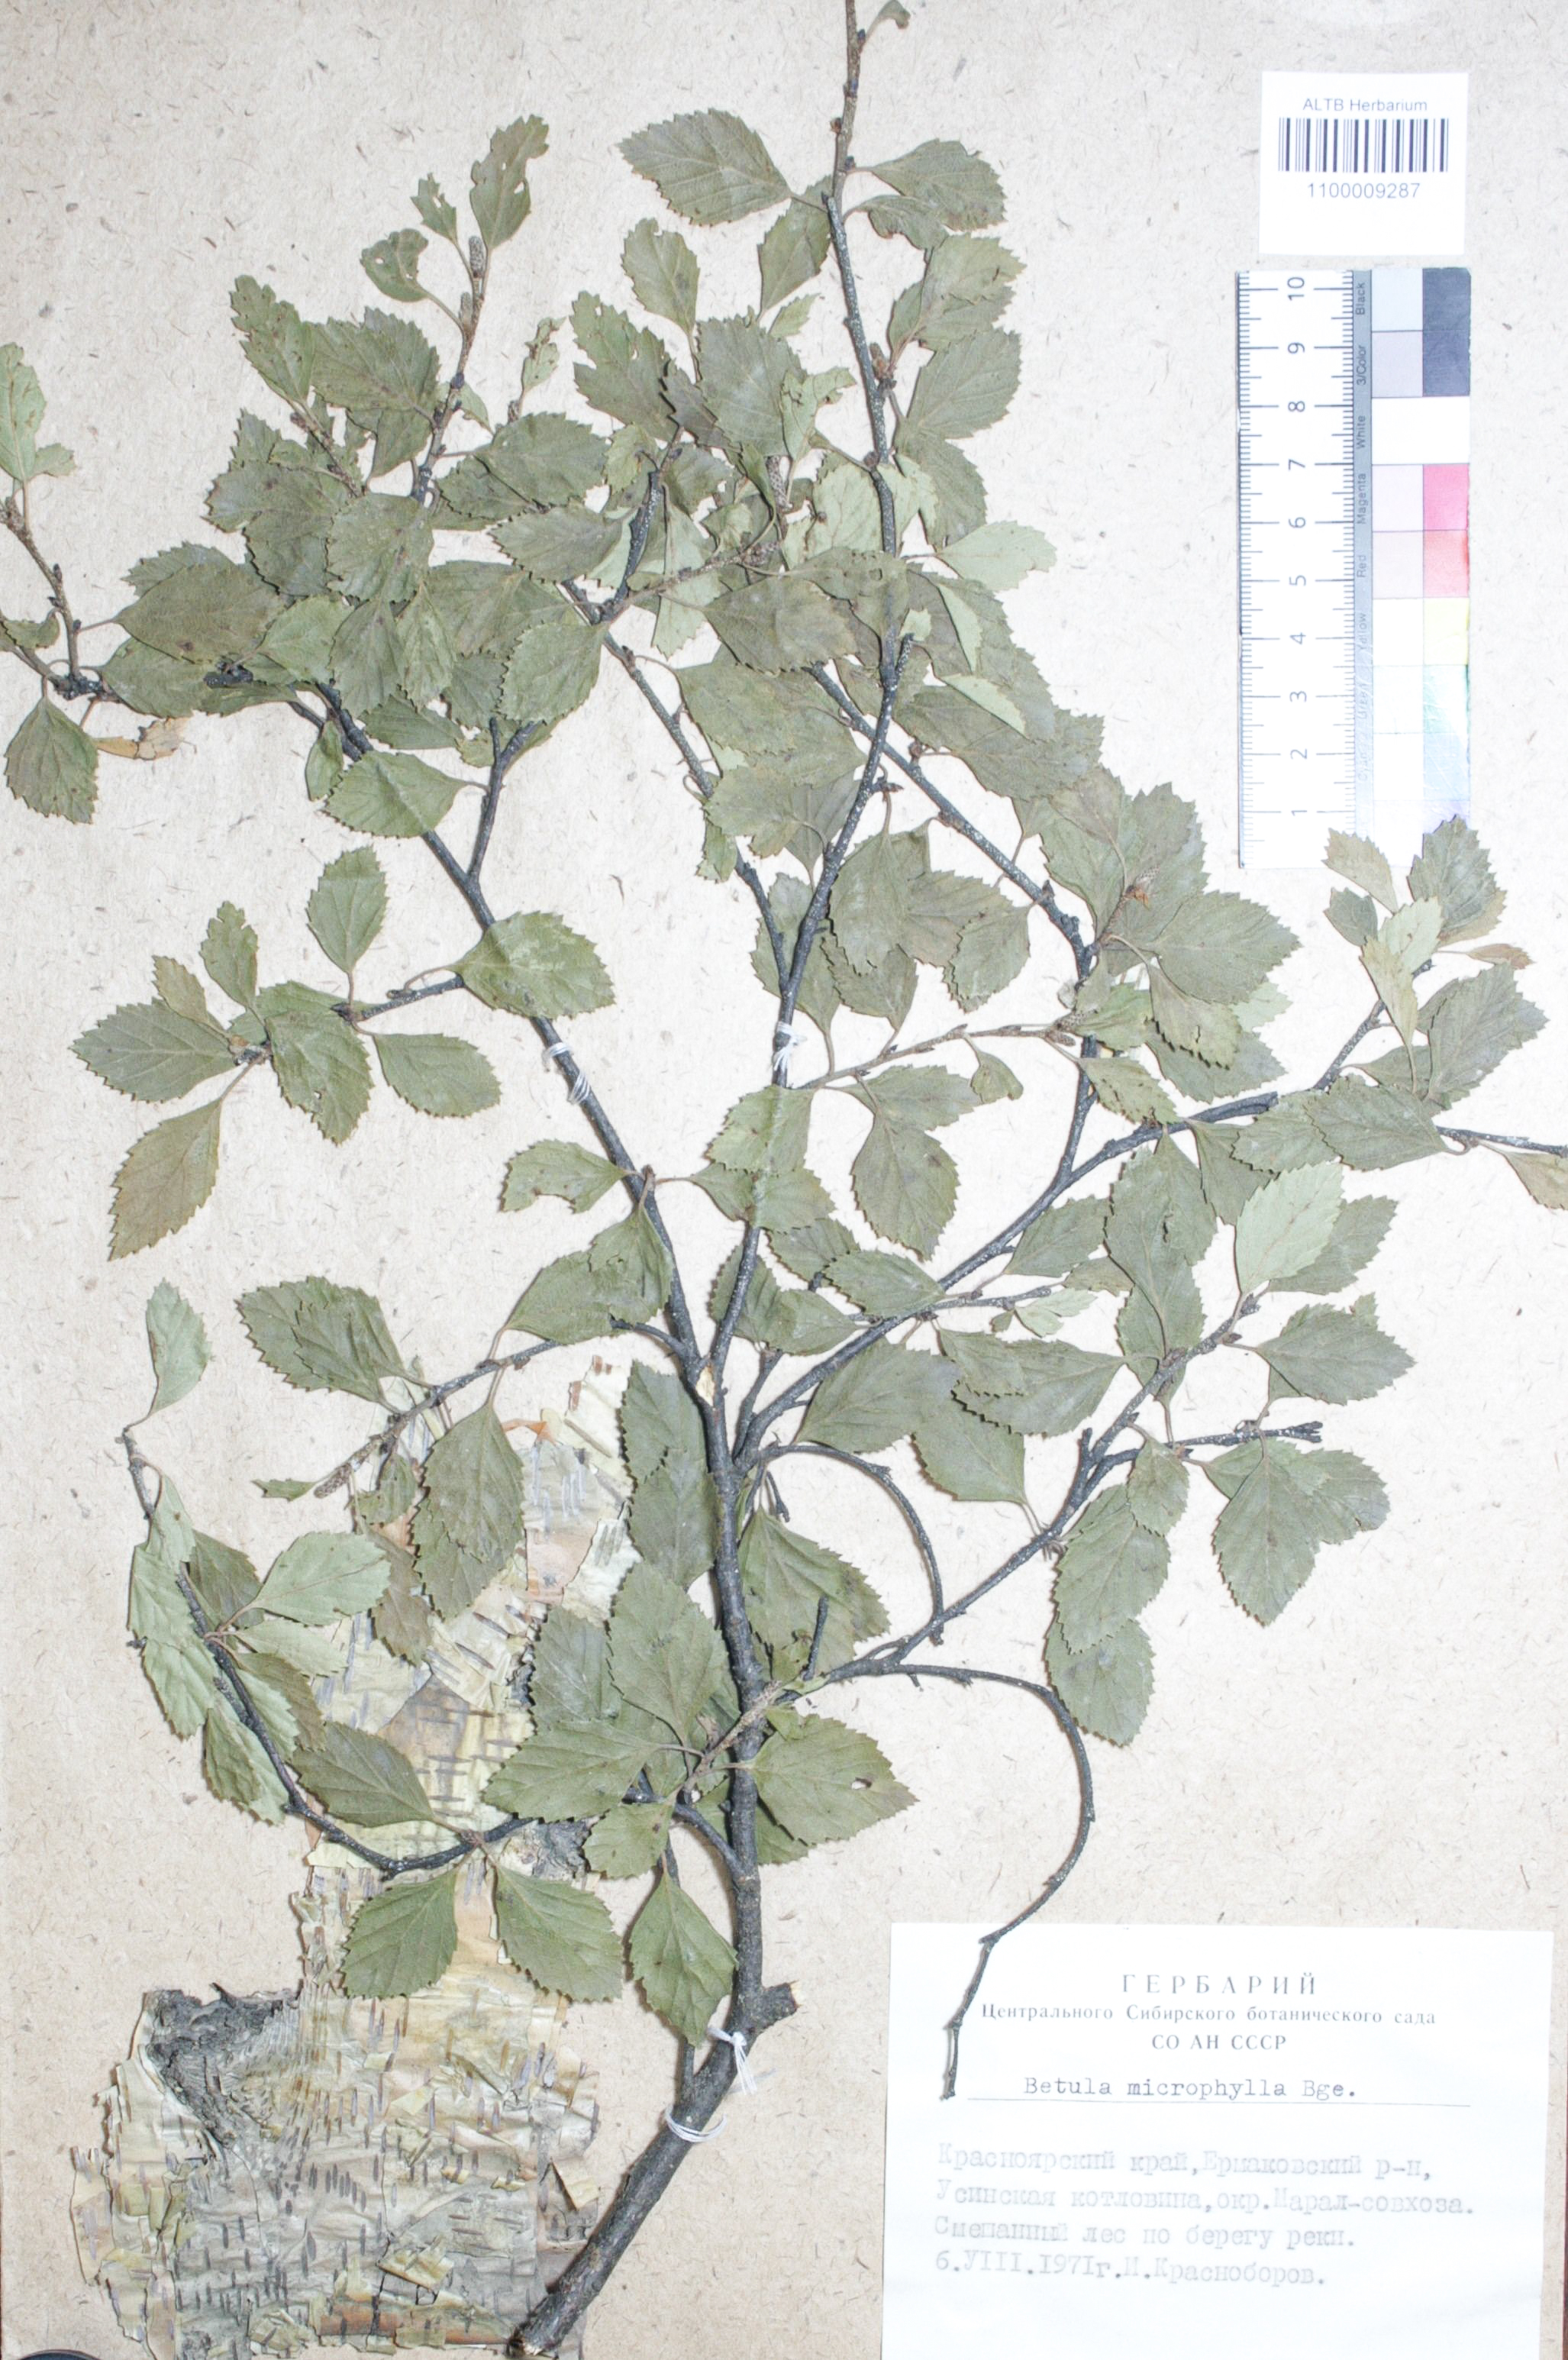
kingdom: Plantae
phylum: Tracheophyta
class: Magnoliopsida
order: Fagales
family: Betulaceae
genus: Betula
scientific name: Betula microphylla
